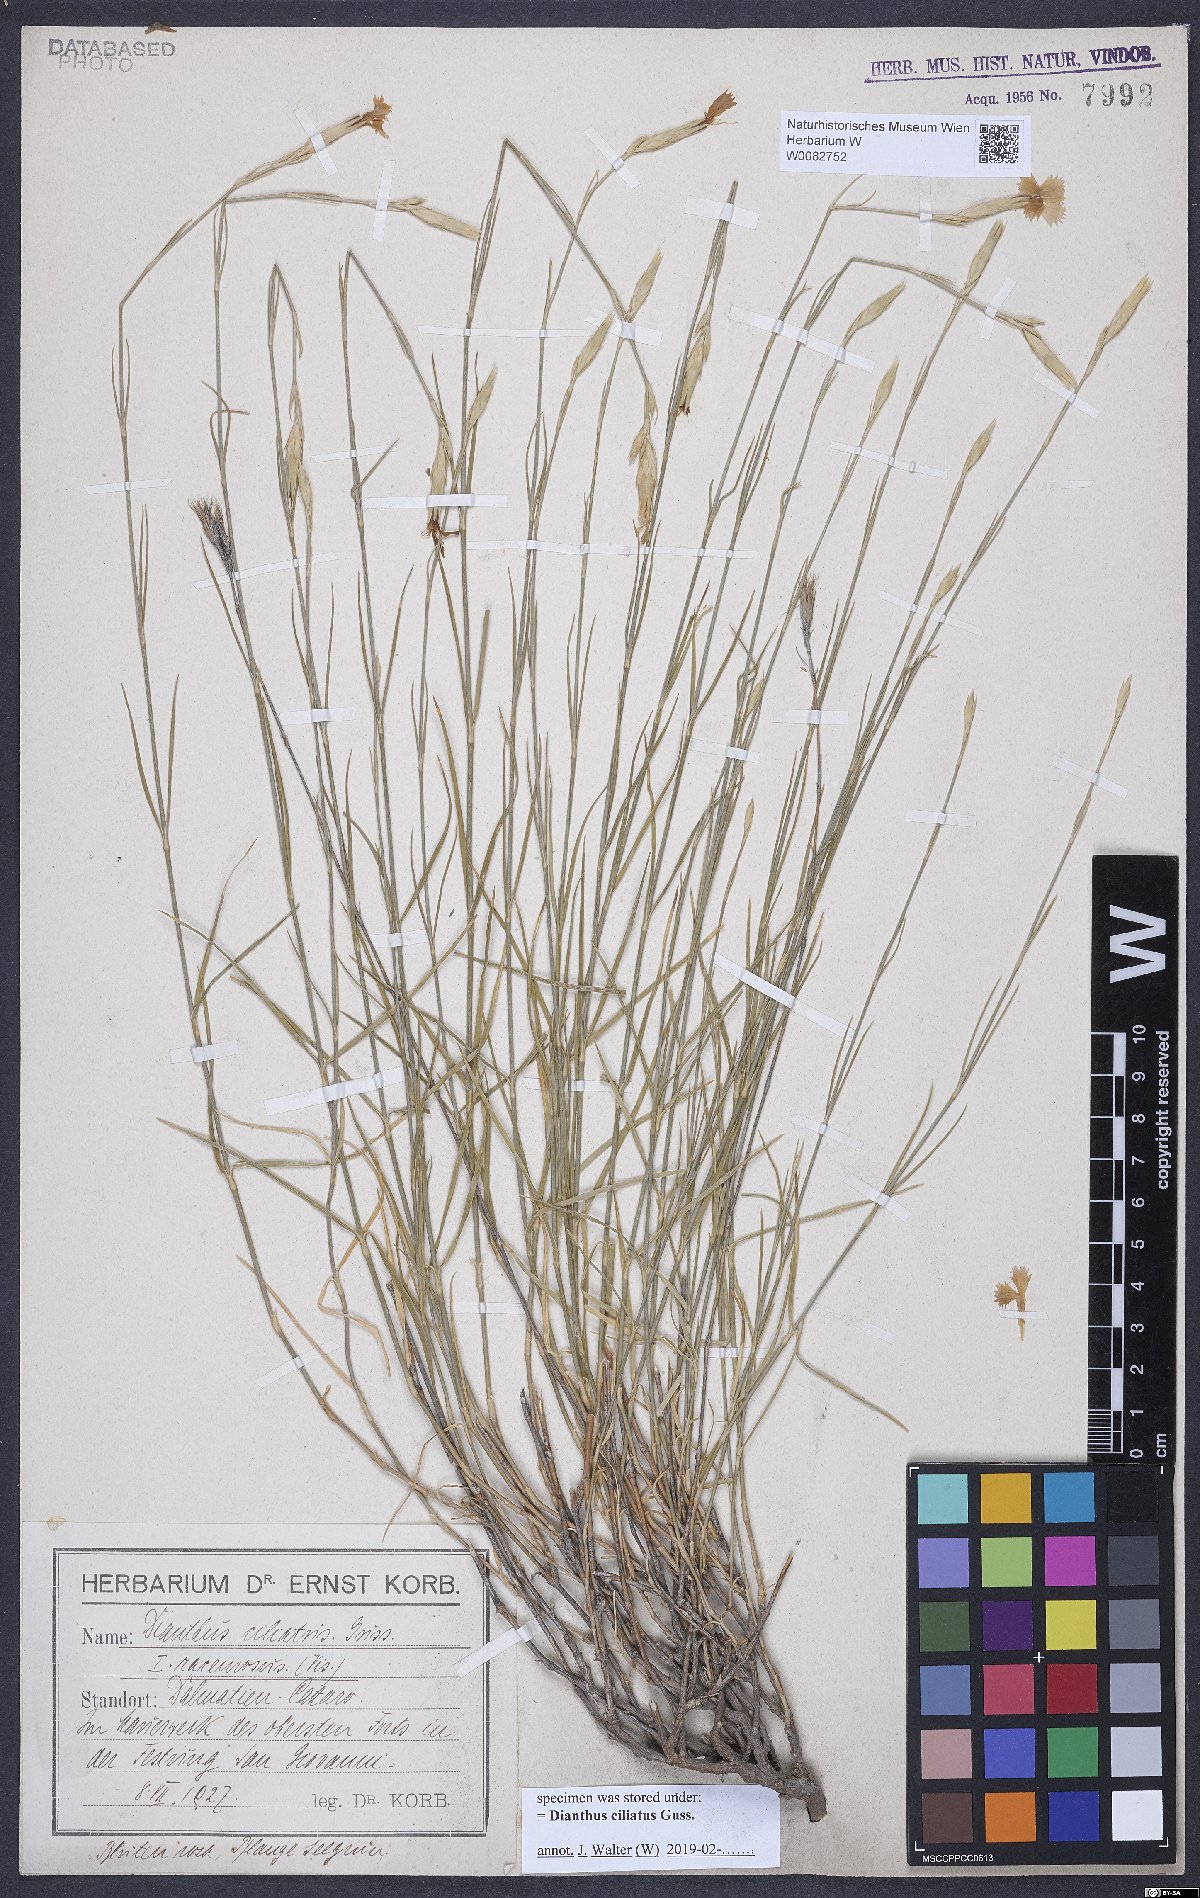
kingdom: Plantae
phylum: Tracheophyta
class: Magnoliopsida
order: Caryophyllales
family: Caryophyllaceae
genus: Dianthus
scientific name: Dianthus ciliatus
